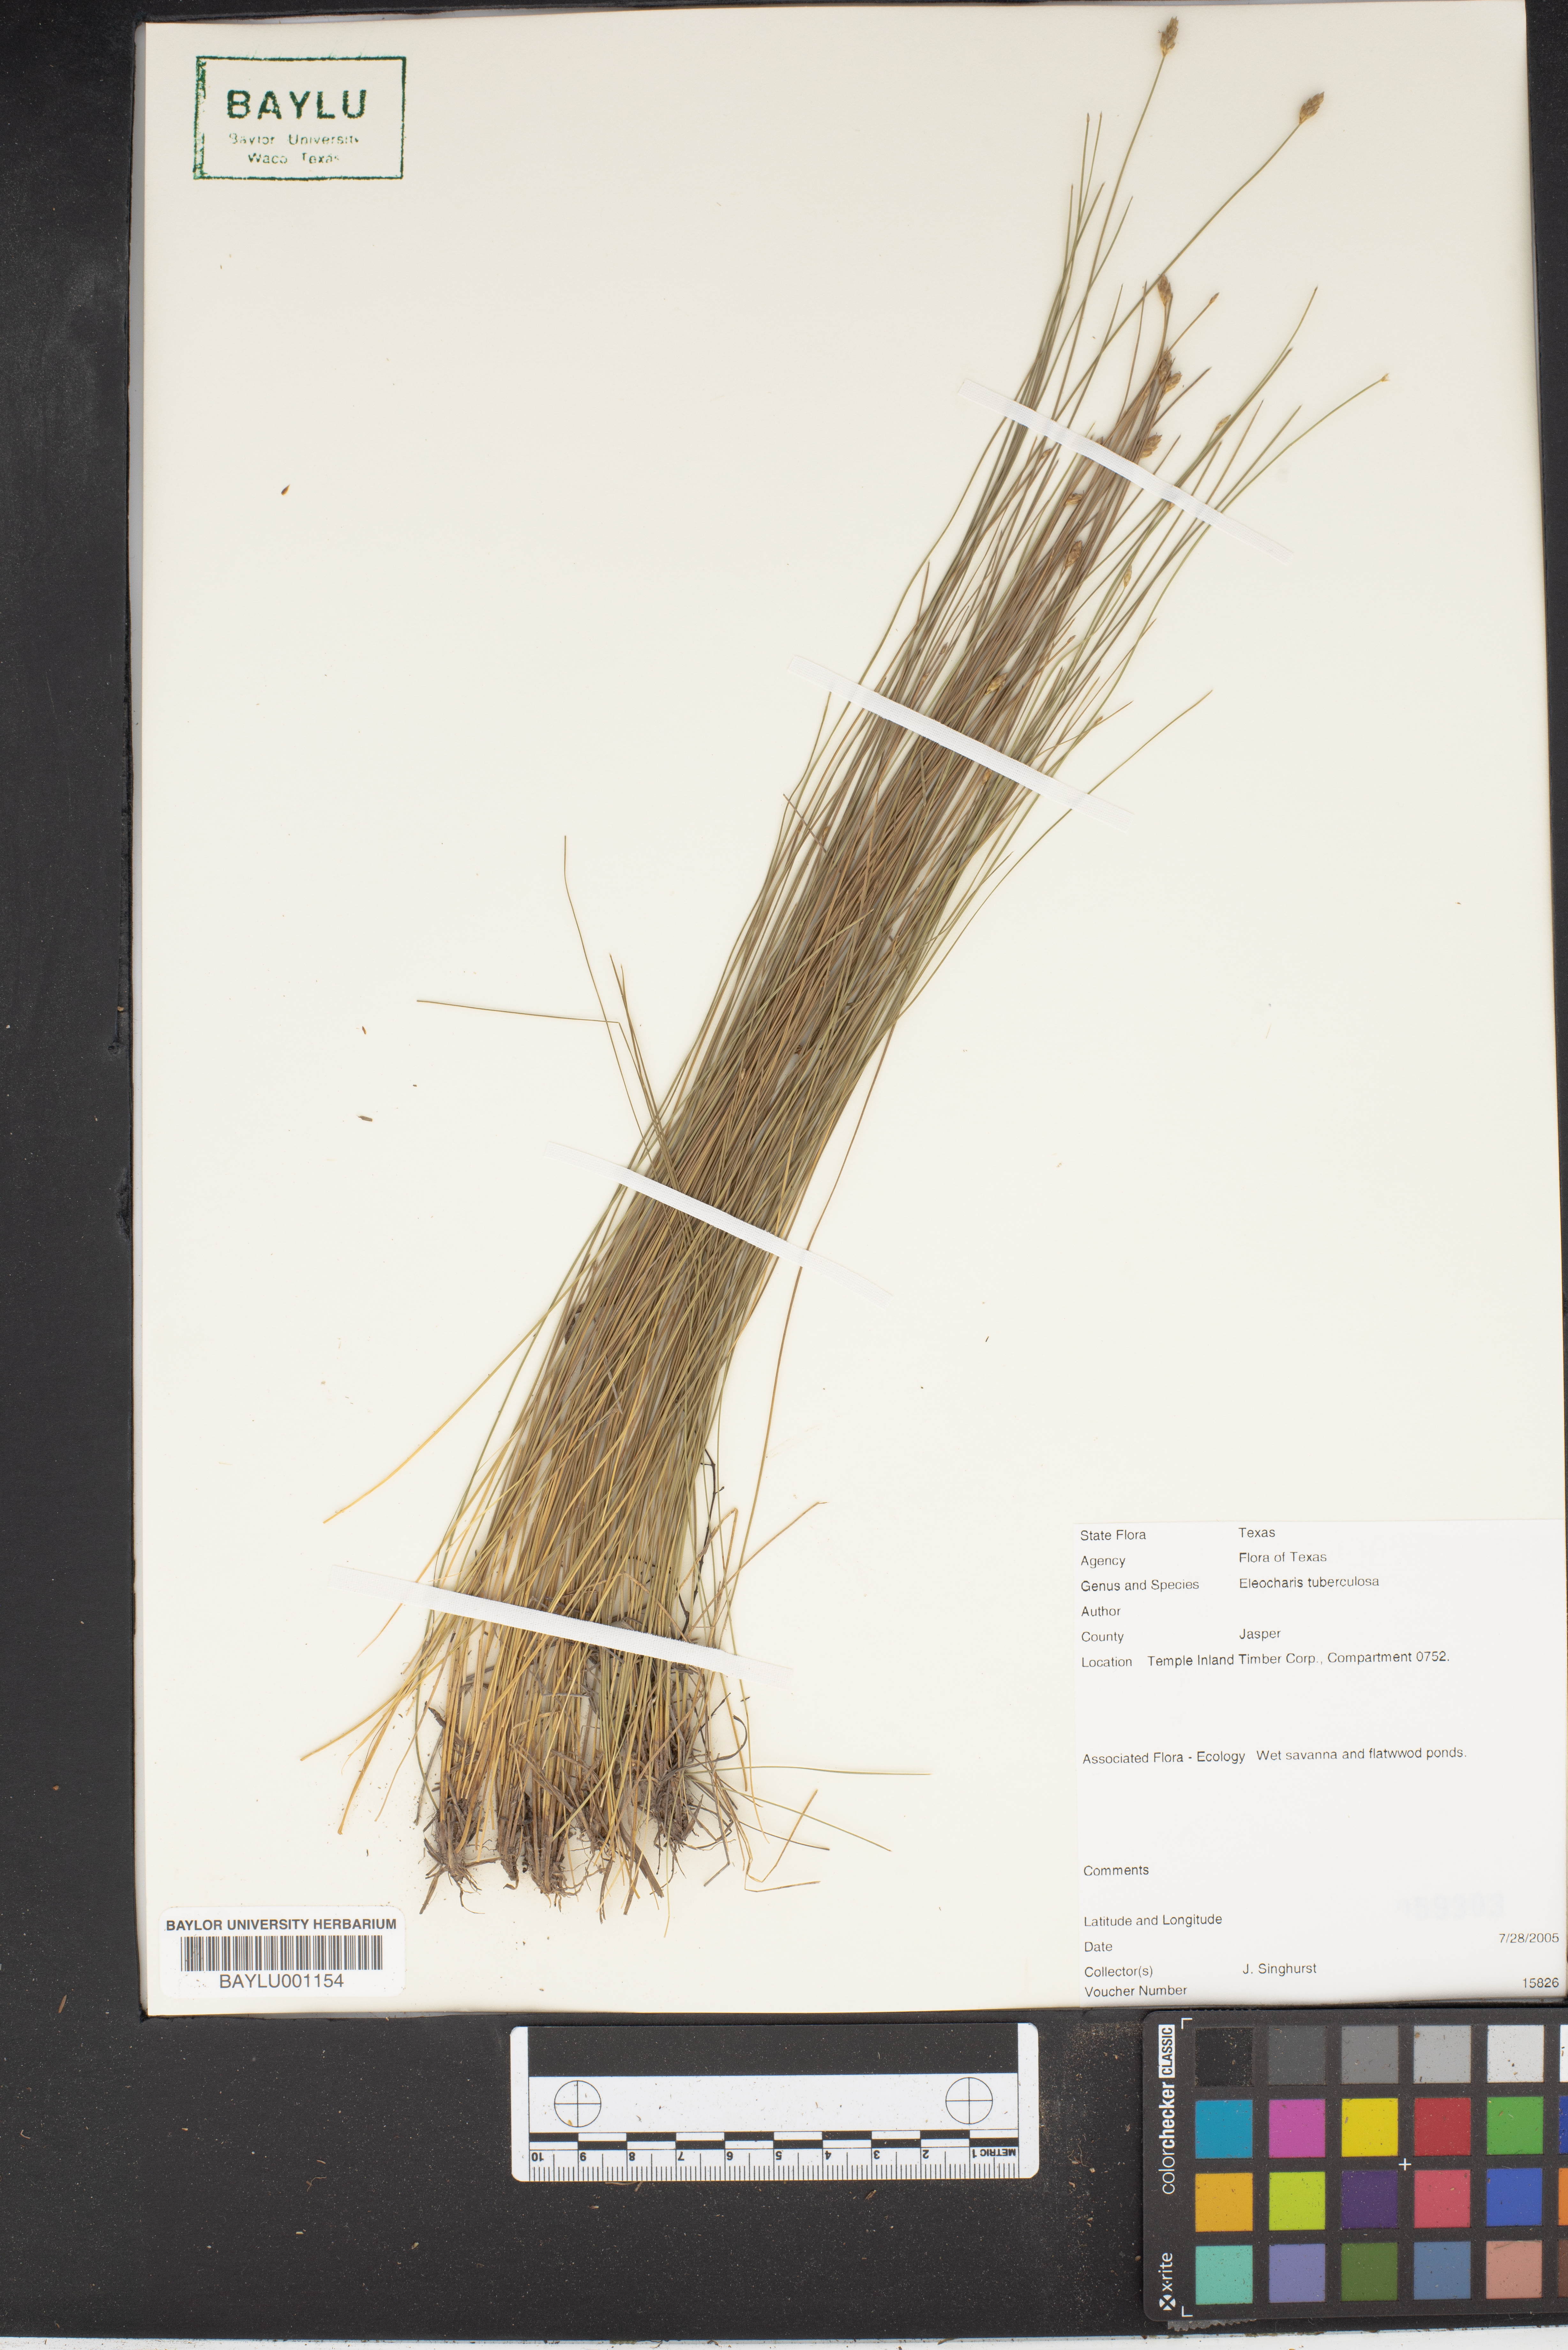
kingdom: Plantae
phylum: Tracheophyta
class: Liliopsida
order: Poales
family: Cyperaceae
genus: Eleocharis
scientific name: Eleocharis tuberculosa
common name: Cone-cup spikerush
